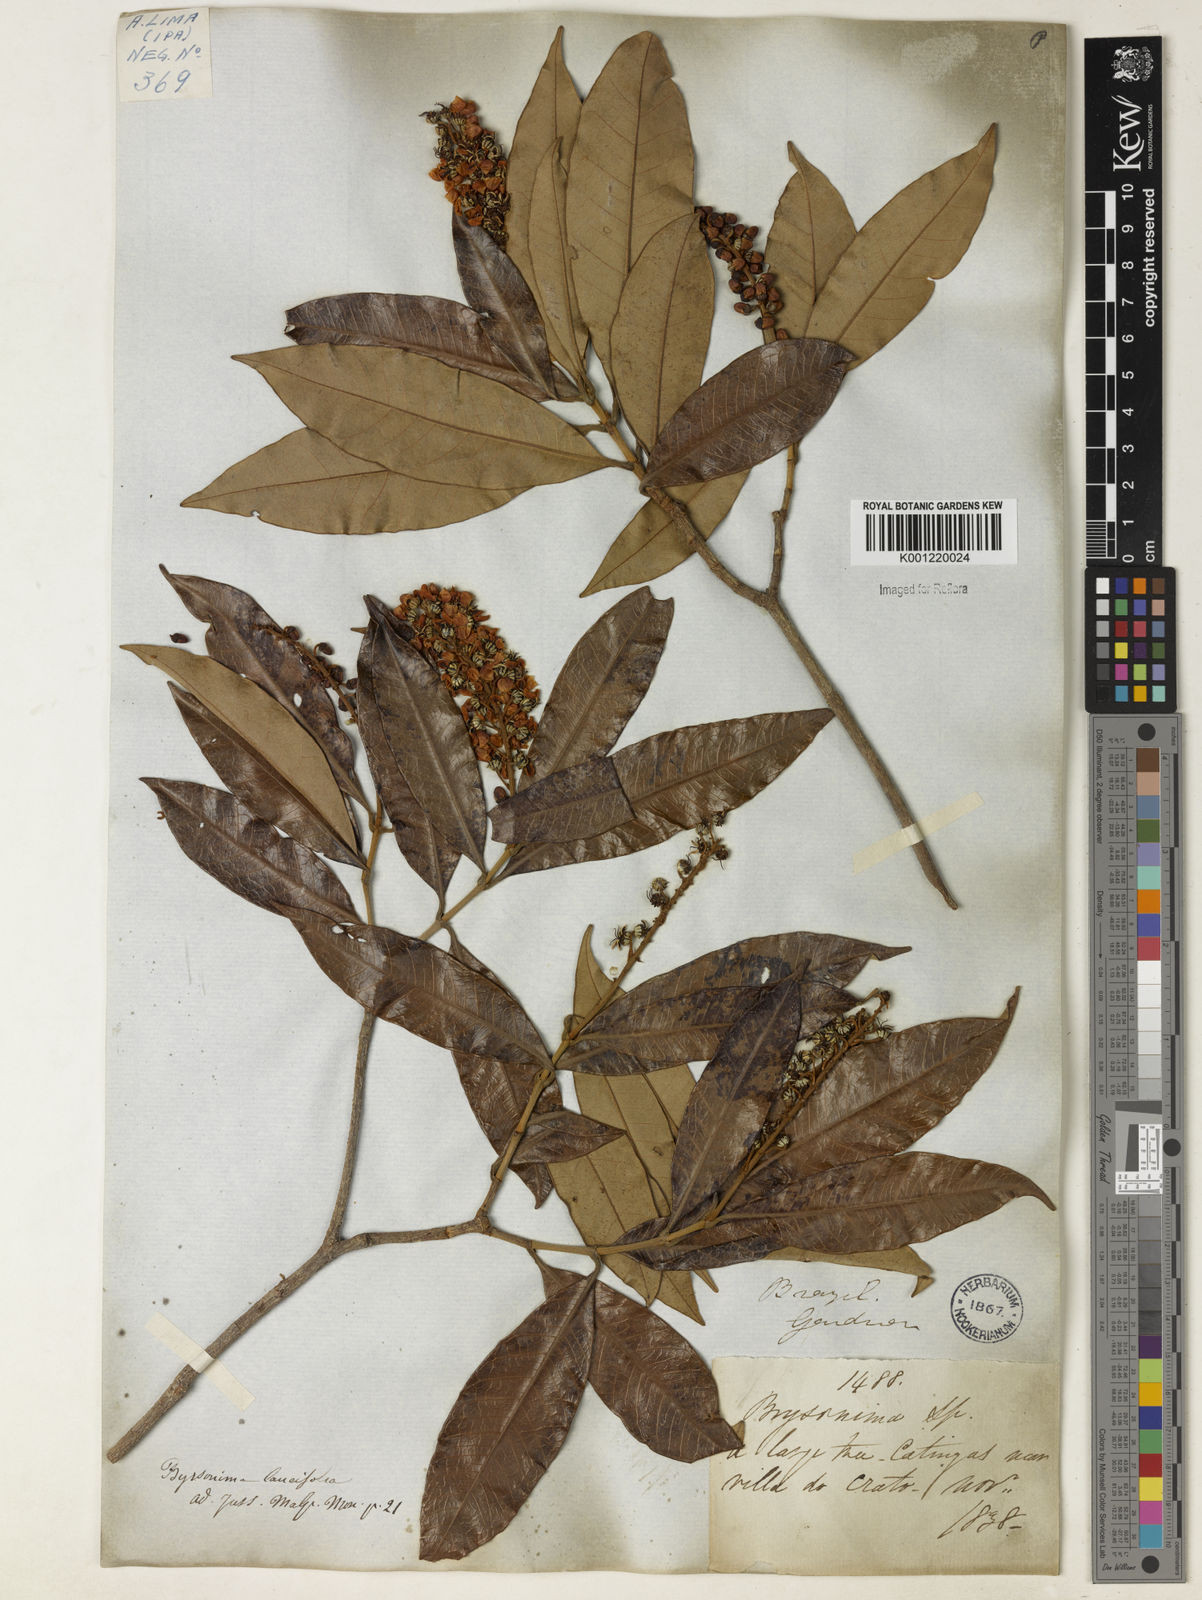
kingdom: Plantae
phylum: Tracheophyta
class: Magnoliopsida
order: Malpighiales
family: Malpighiaceae
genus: Byrsonima
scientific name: Byrsonima lancifolia
